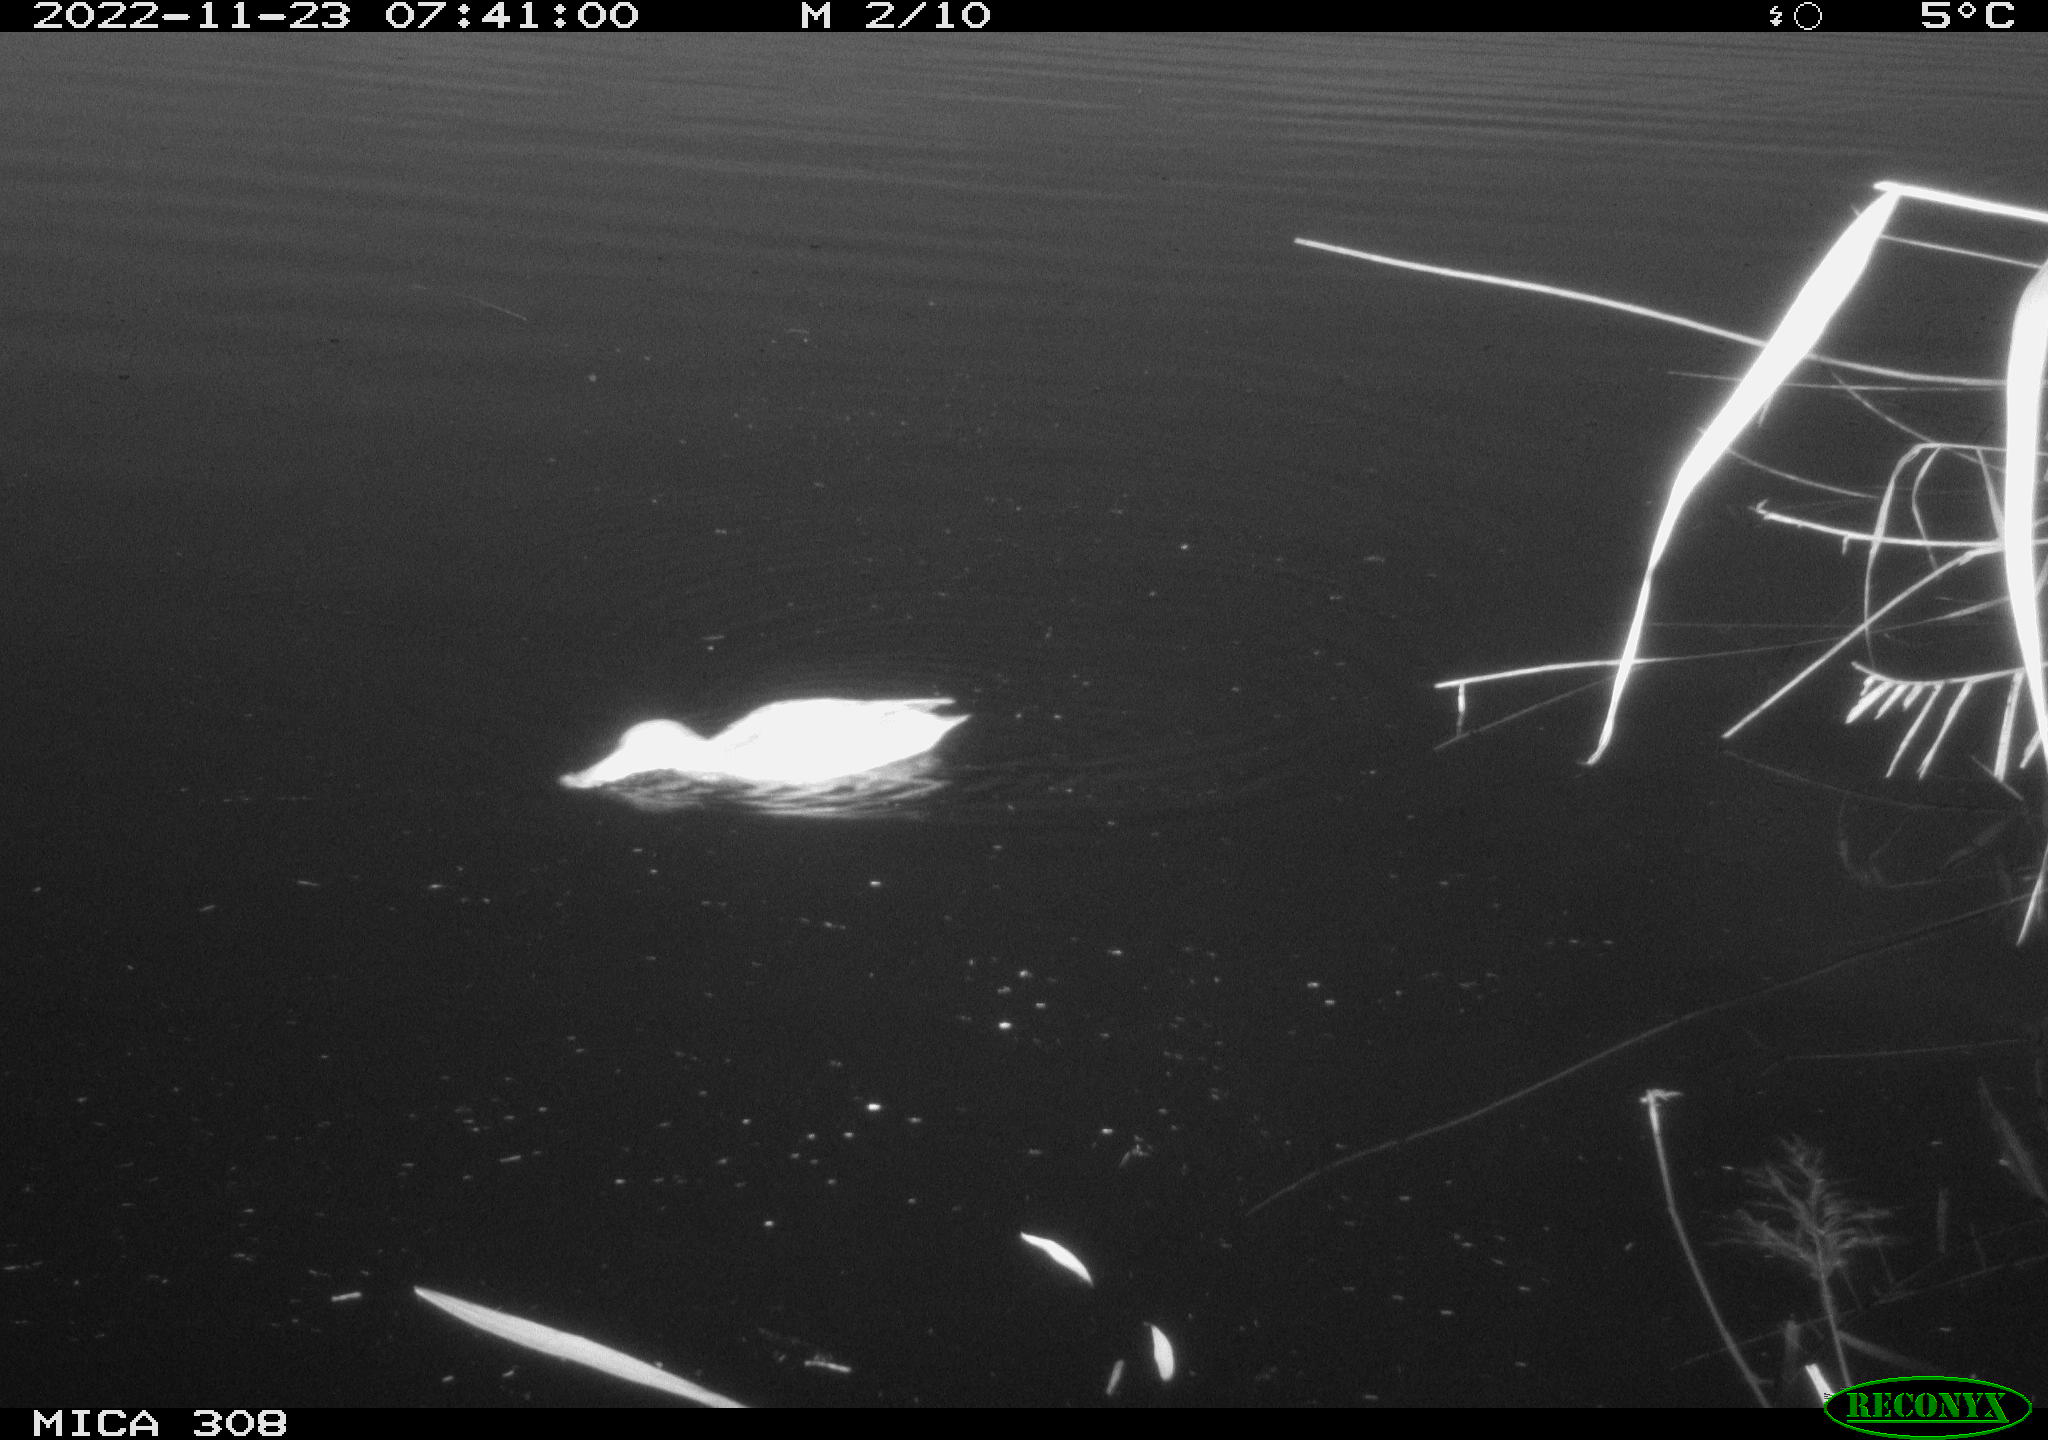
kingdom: Animalia
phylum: Chordata
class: Aves
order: Anseriformes
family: Anatidae
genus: Anas
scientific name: Anas
